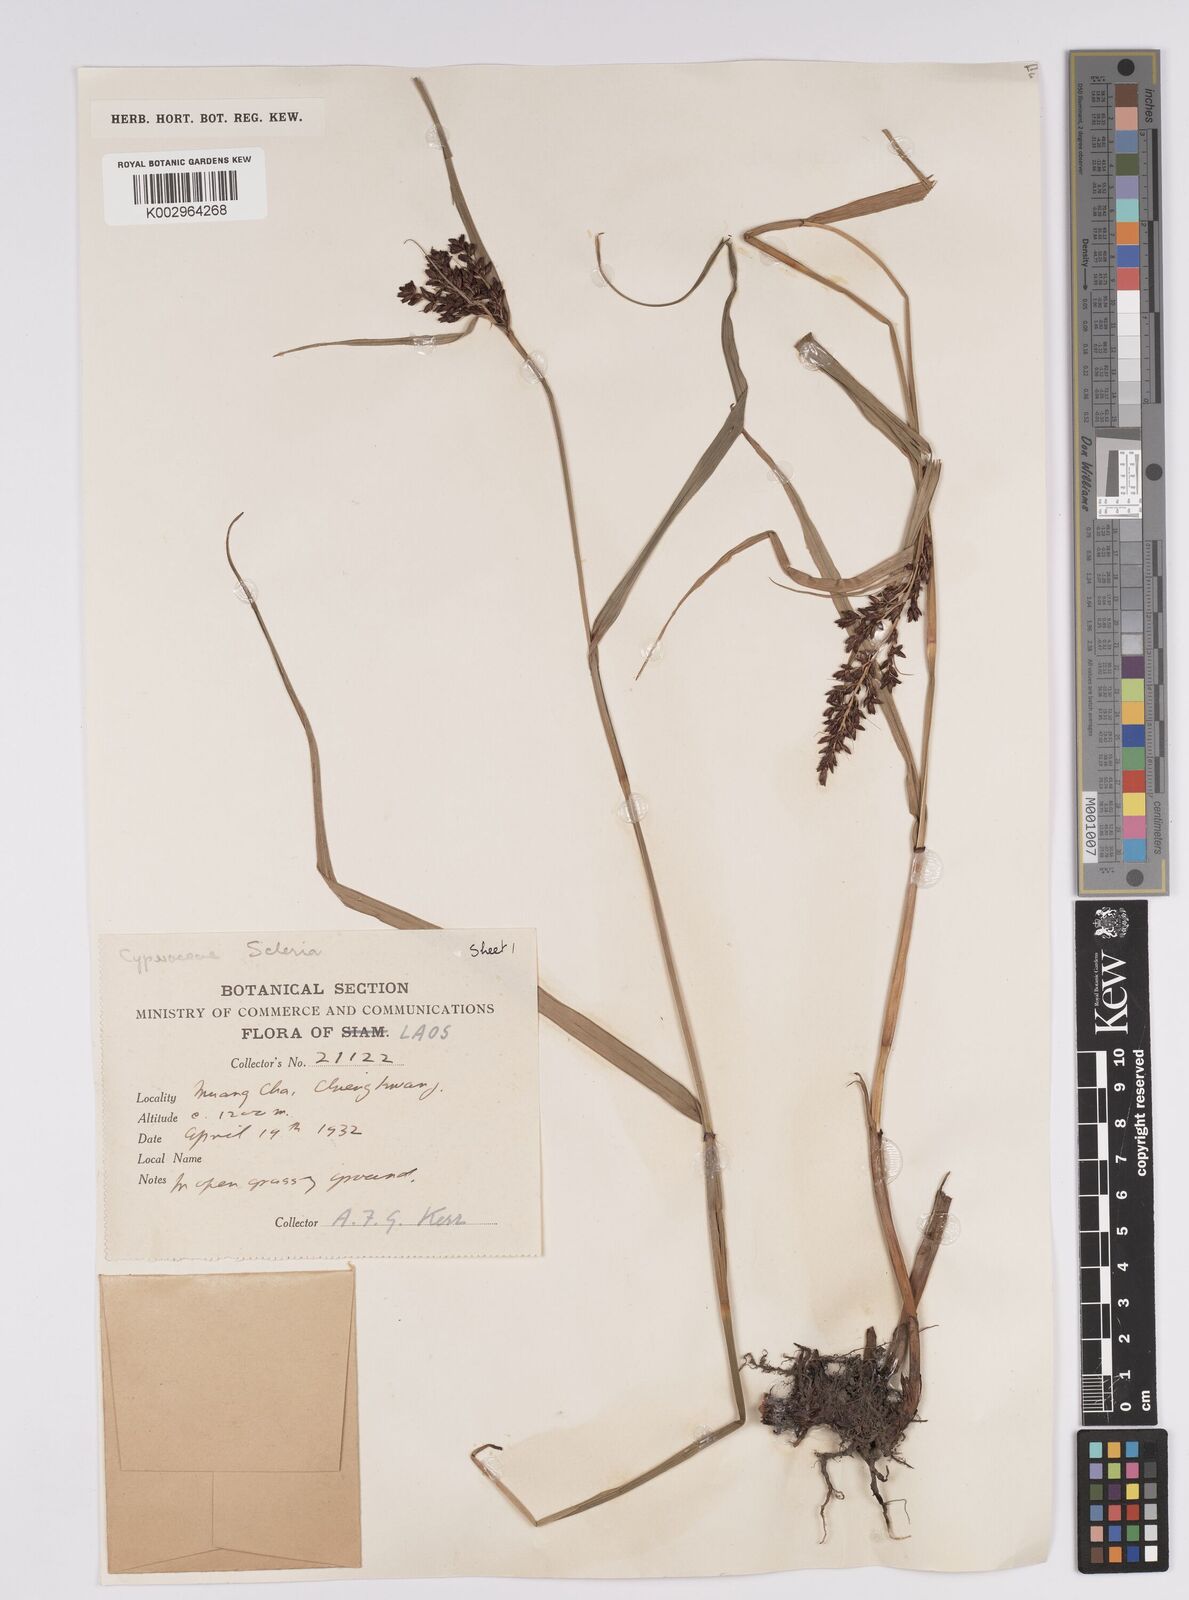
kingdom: Plantae
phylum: Tracheophyta
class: Liliopsida
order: Poales
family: Cyperaceae
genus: Scleria
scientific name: Scleria
